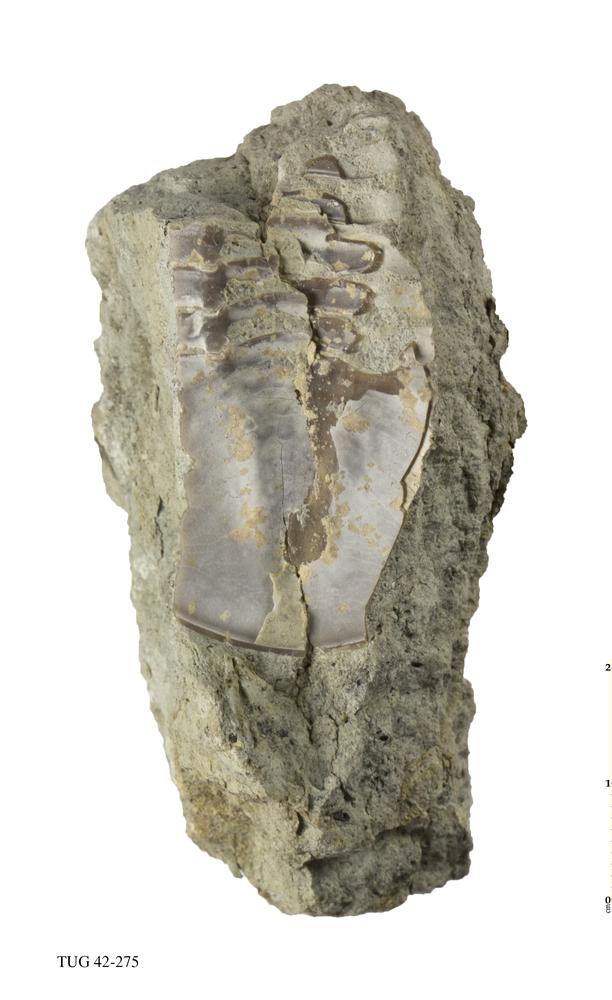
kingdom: Animalia
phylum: Arthropoda
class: Trilobita
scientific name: Trilobita
